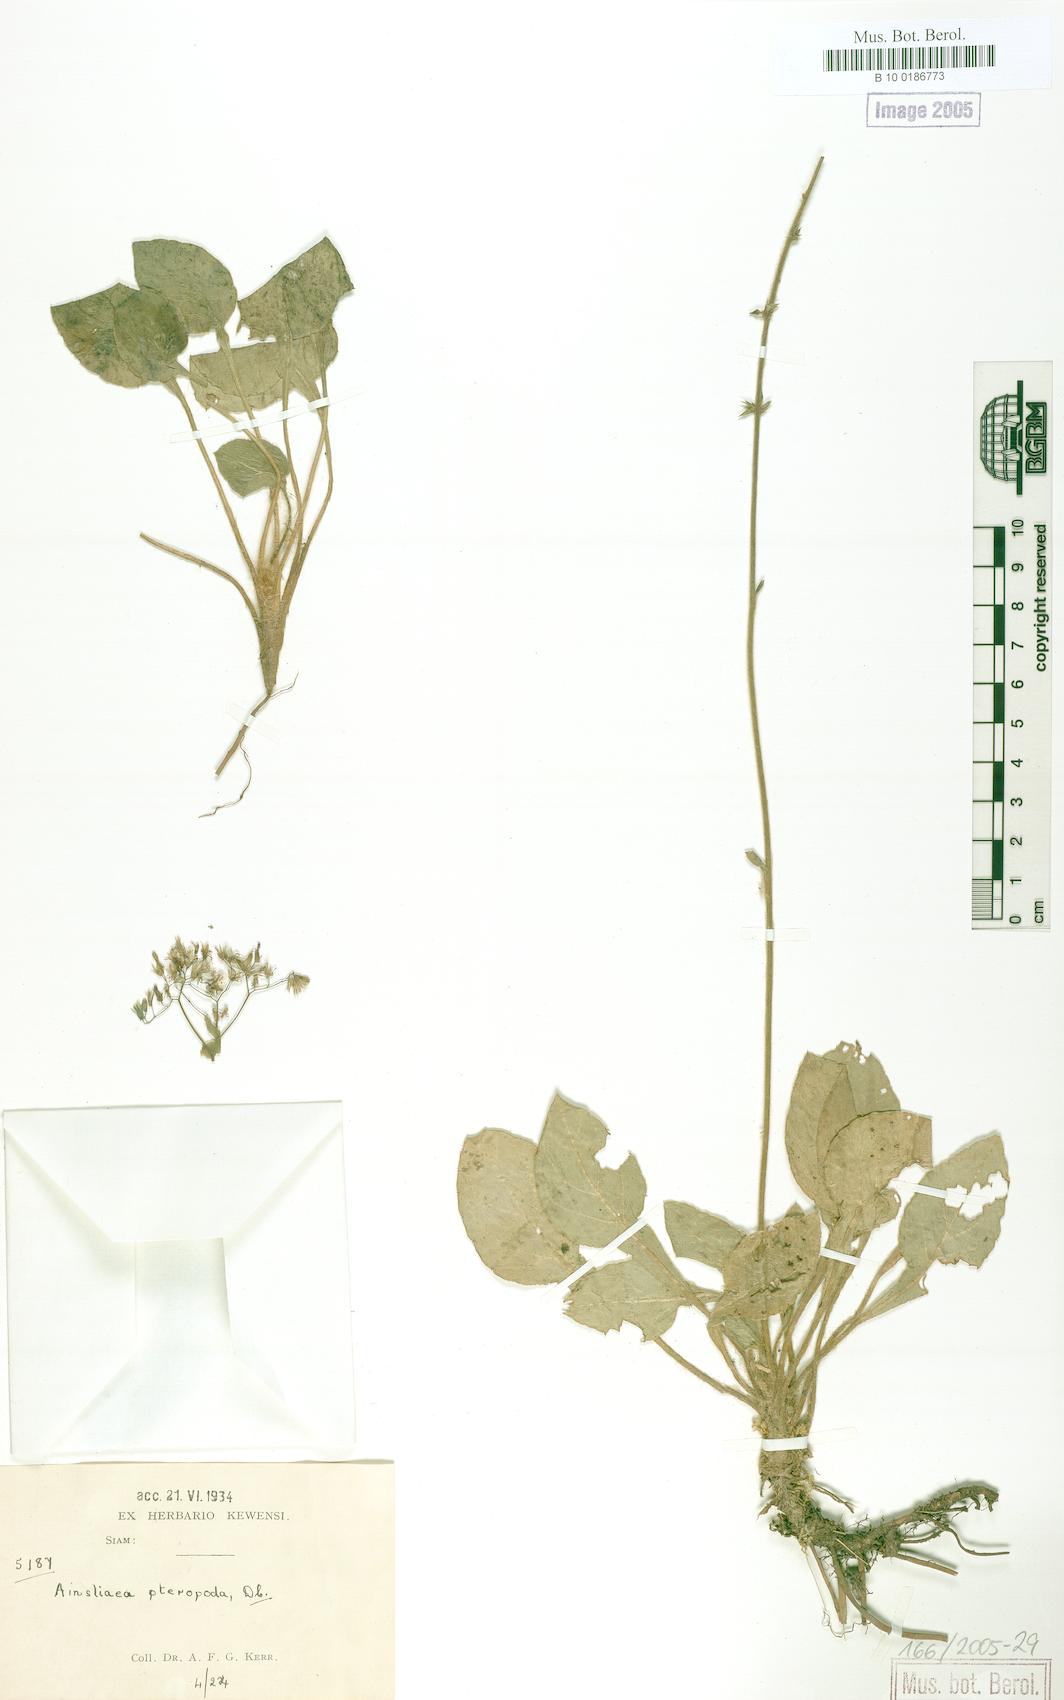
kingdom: Plantae
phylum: Tracheophyta
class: Magnoliopsida
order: Asterales
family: Asteraceae
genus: Ainsliaea
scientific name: Ainsliaea latifolia
